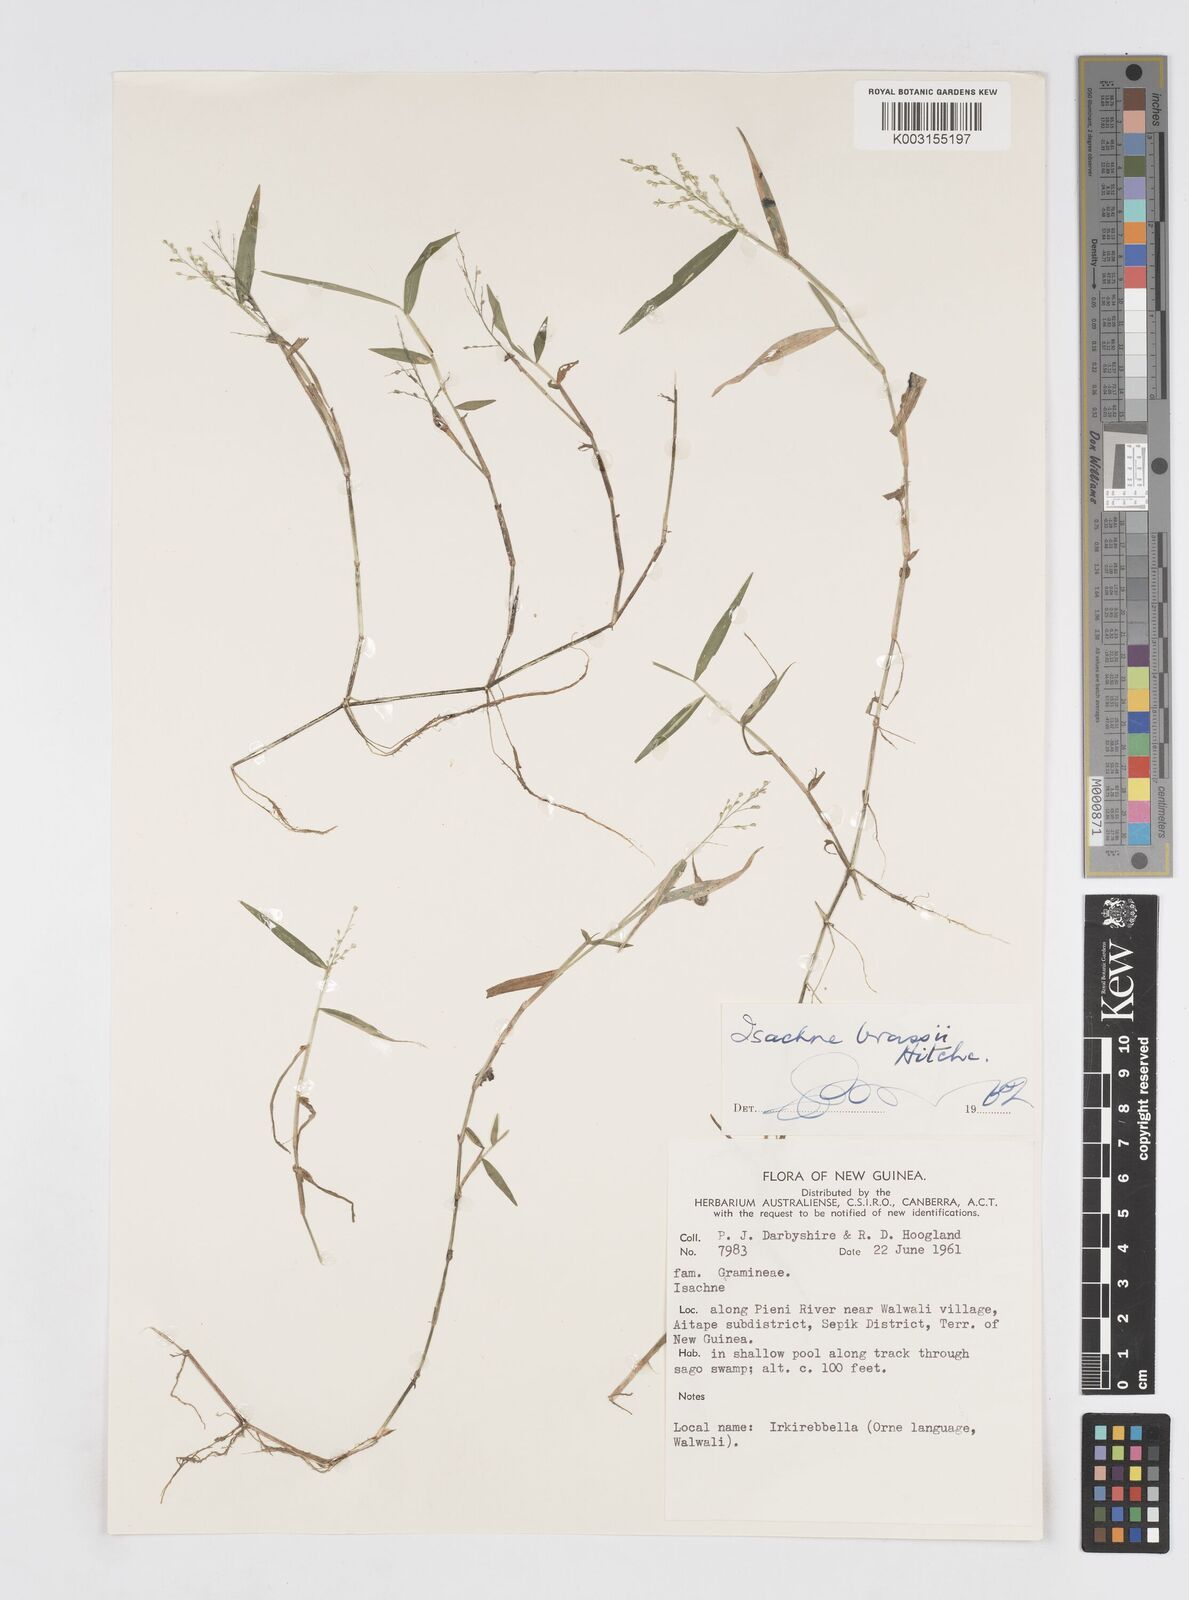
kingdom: Plantae
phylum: Tracheophyta
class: Liliopsida
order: Poales
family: Poaceae
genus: Isachne
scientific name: Isachne brassii
